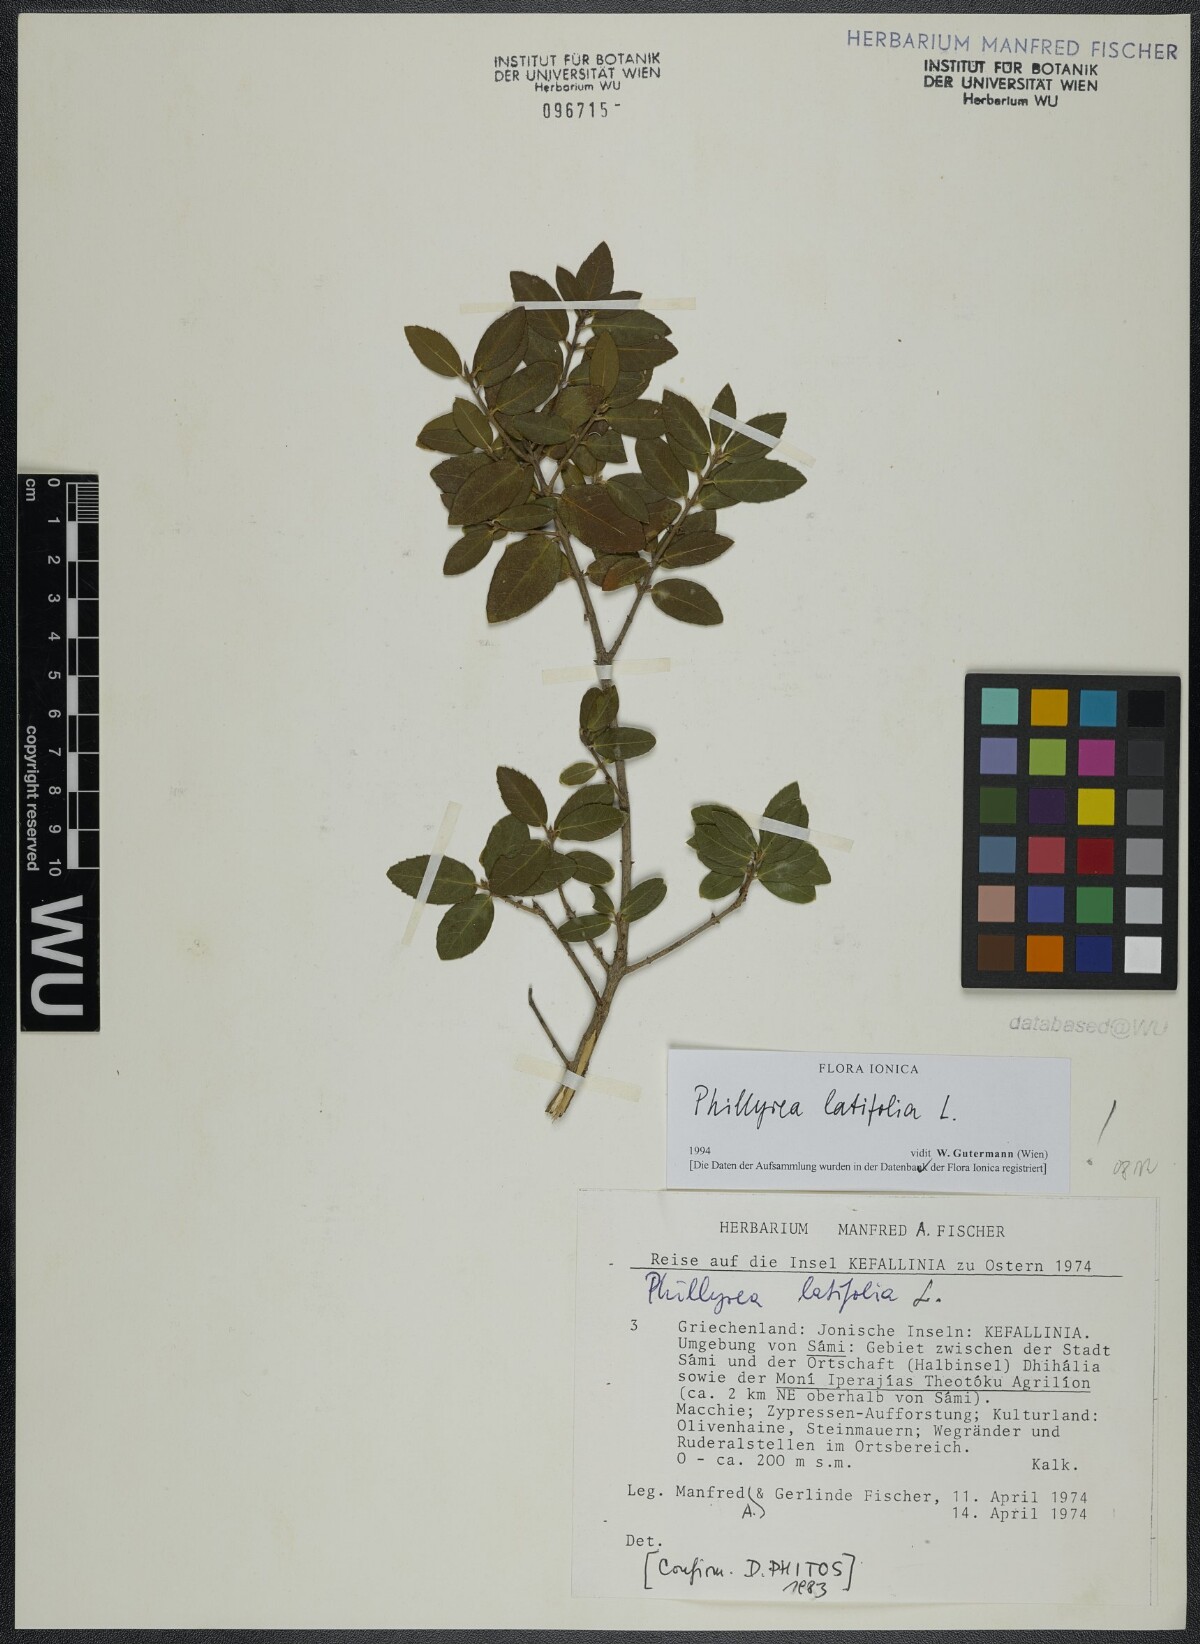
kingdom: Plantae
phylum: Tracheophyta
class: Magnoliopsida
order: Lamiales
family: Oleaceae
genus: Phillyrea
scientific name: Phillyrea latifolia
